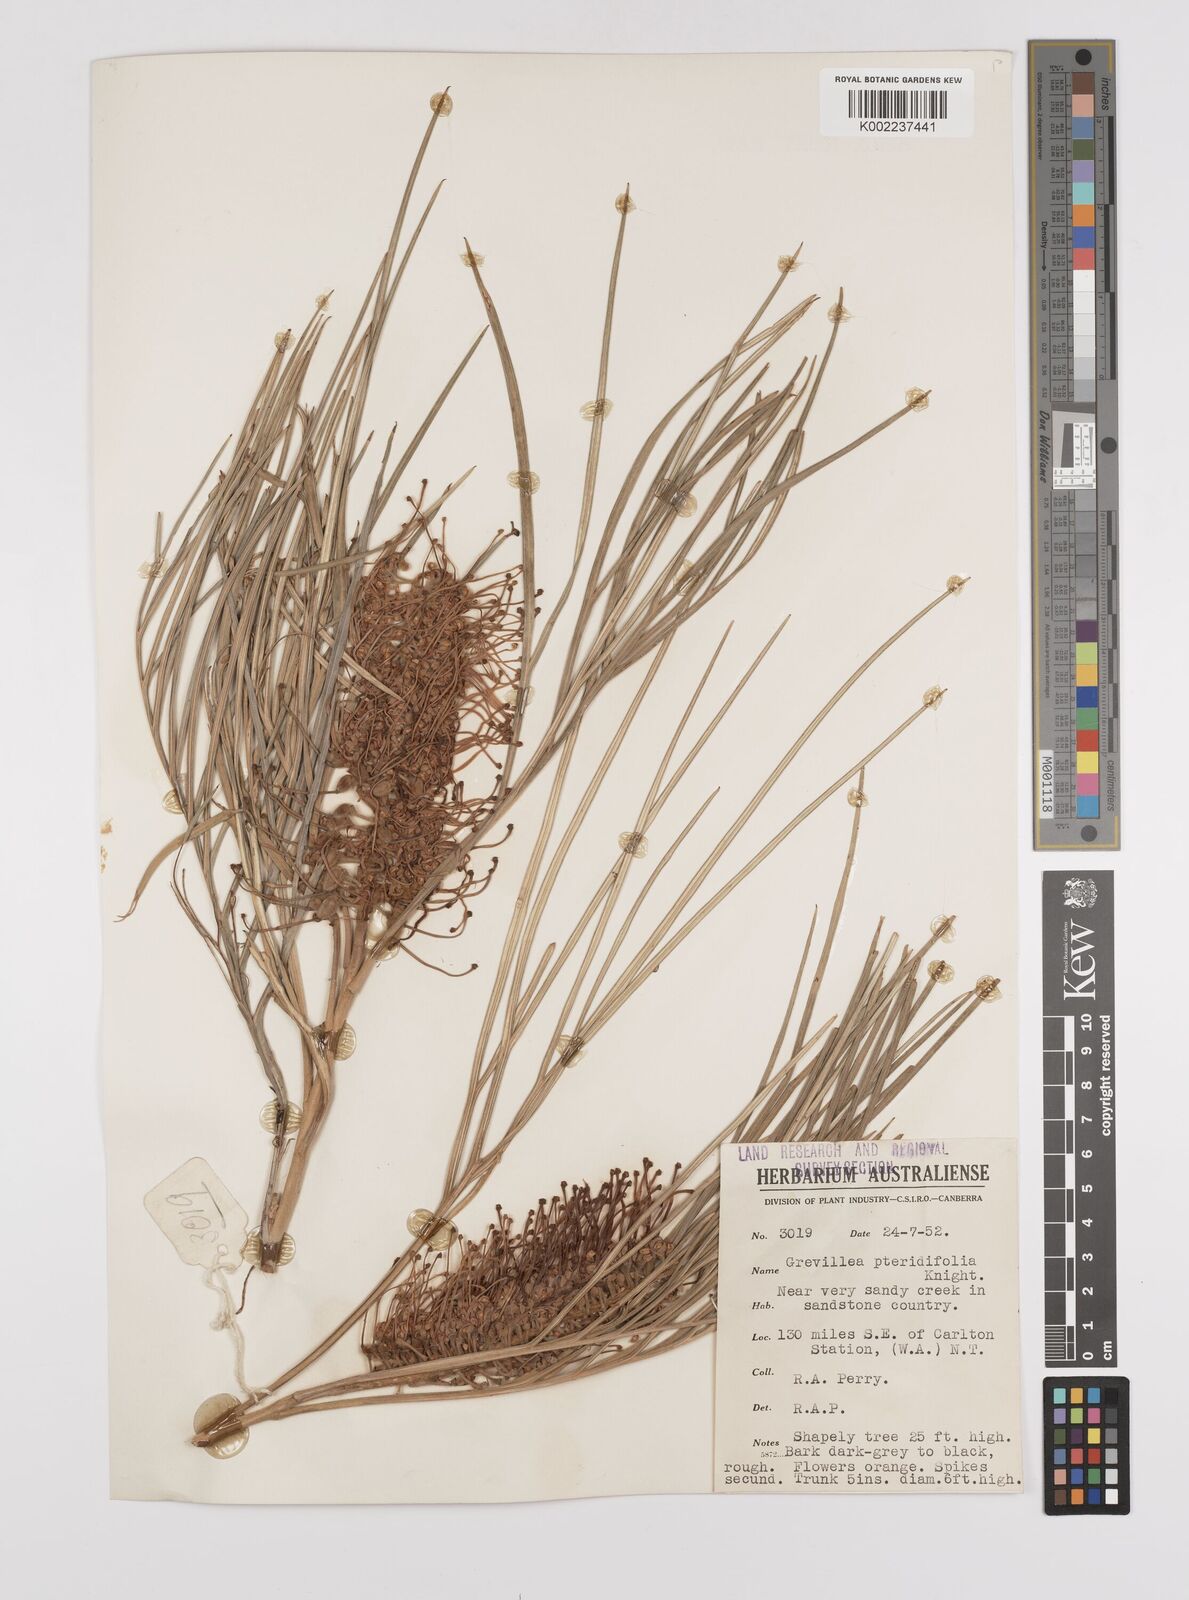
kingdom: Plantae
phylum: Tracheophyta
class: Magnoliopsida
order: Proteales
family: Proteaceae
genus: Grevillea
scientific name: Grevillea pteridifolia
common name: Golden grevillea
